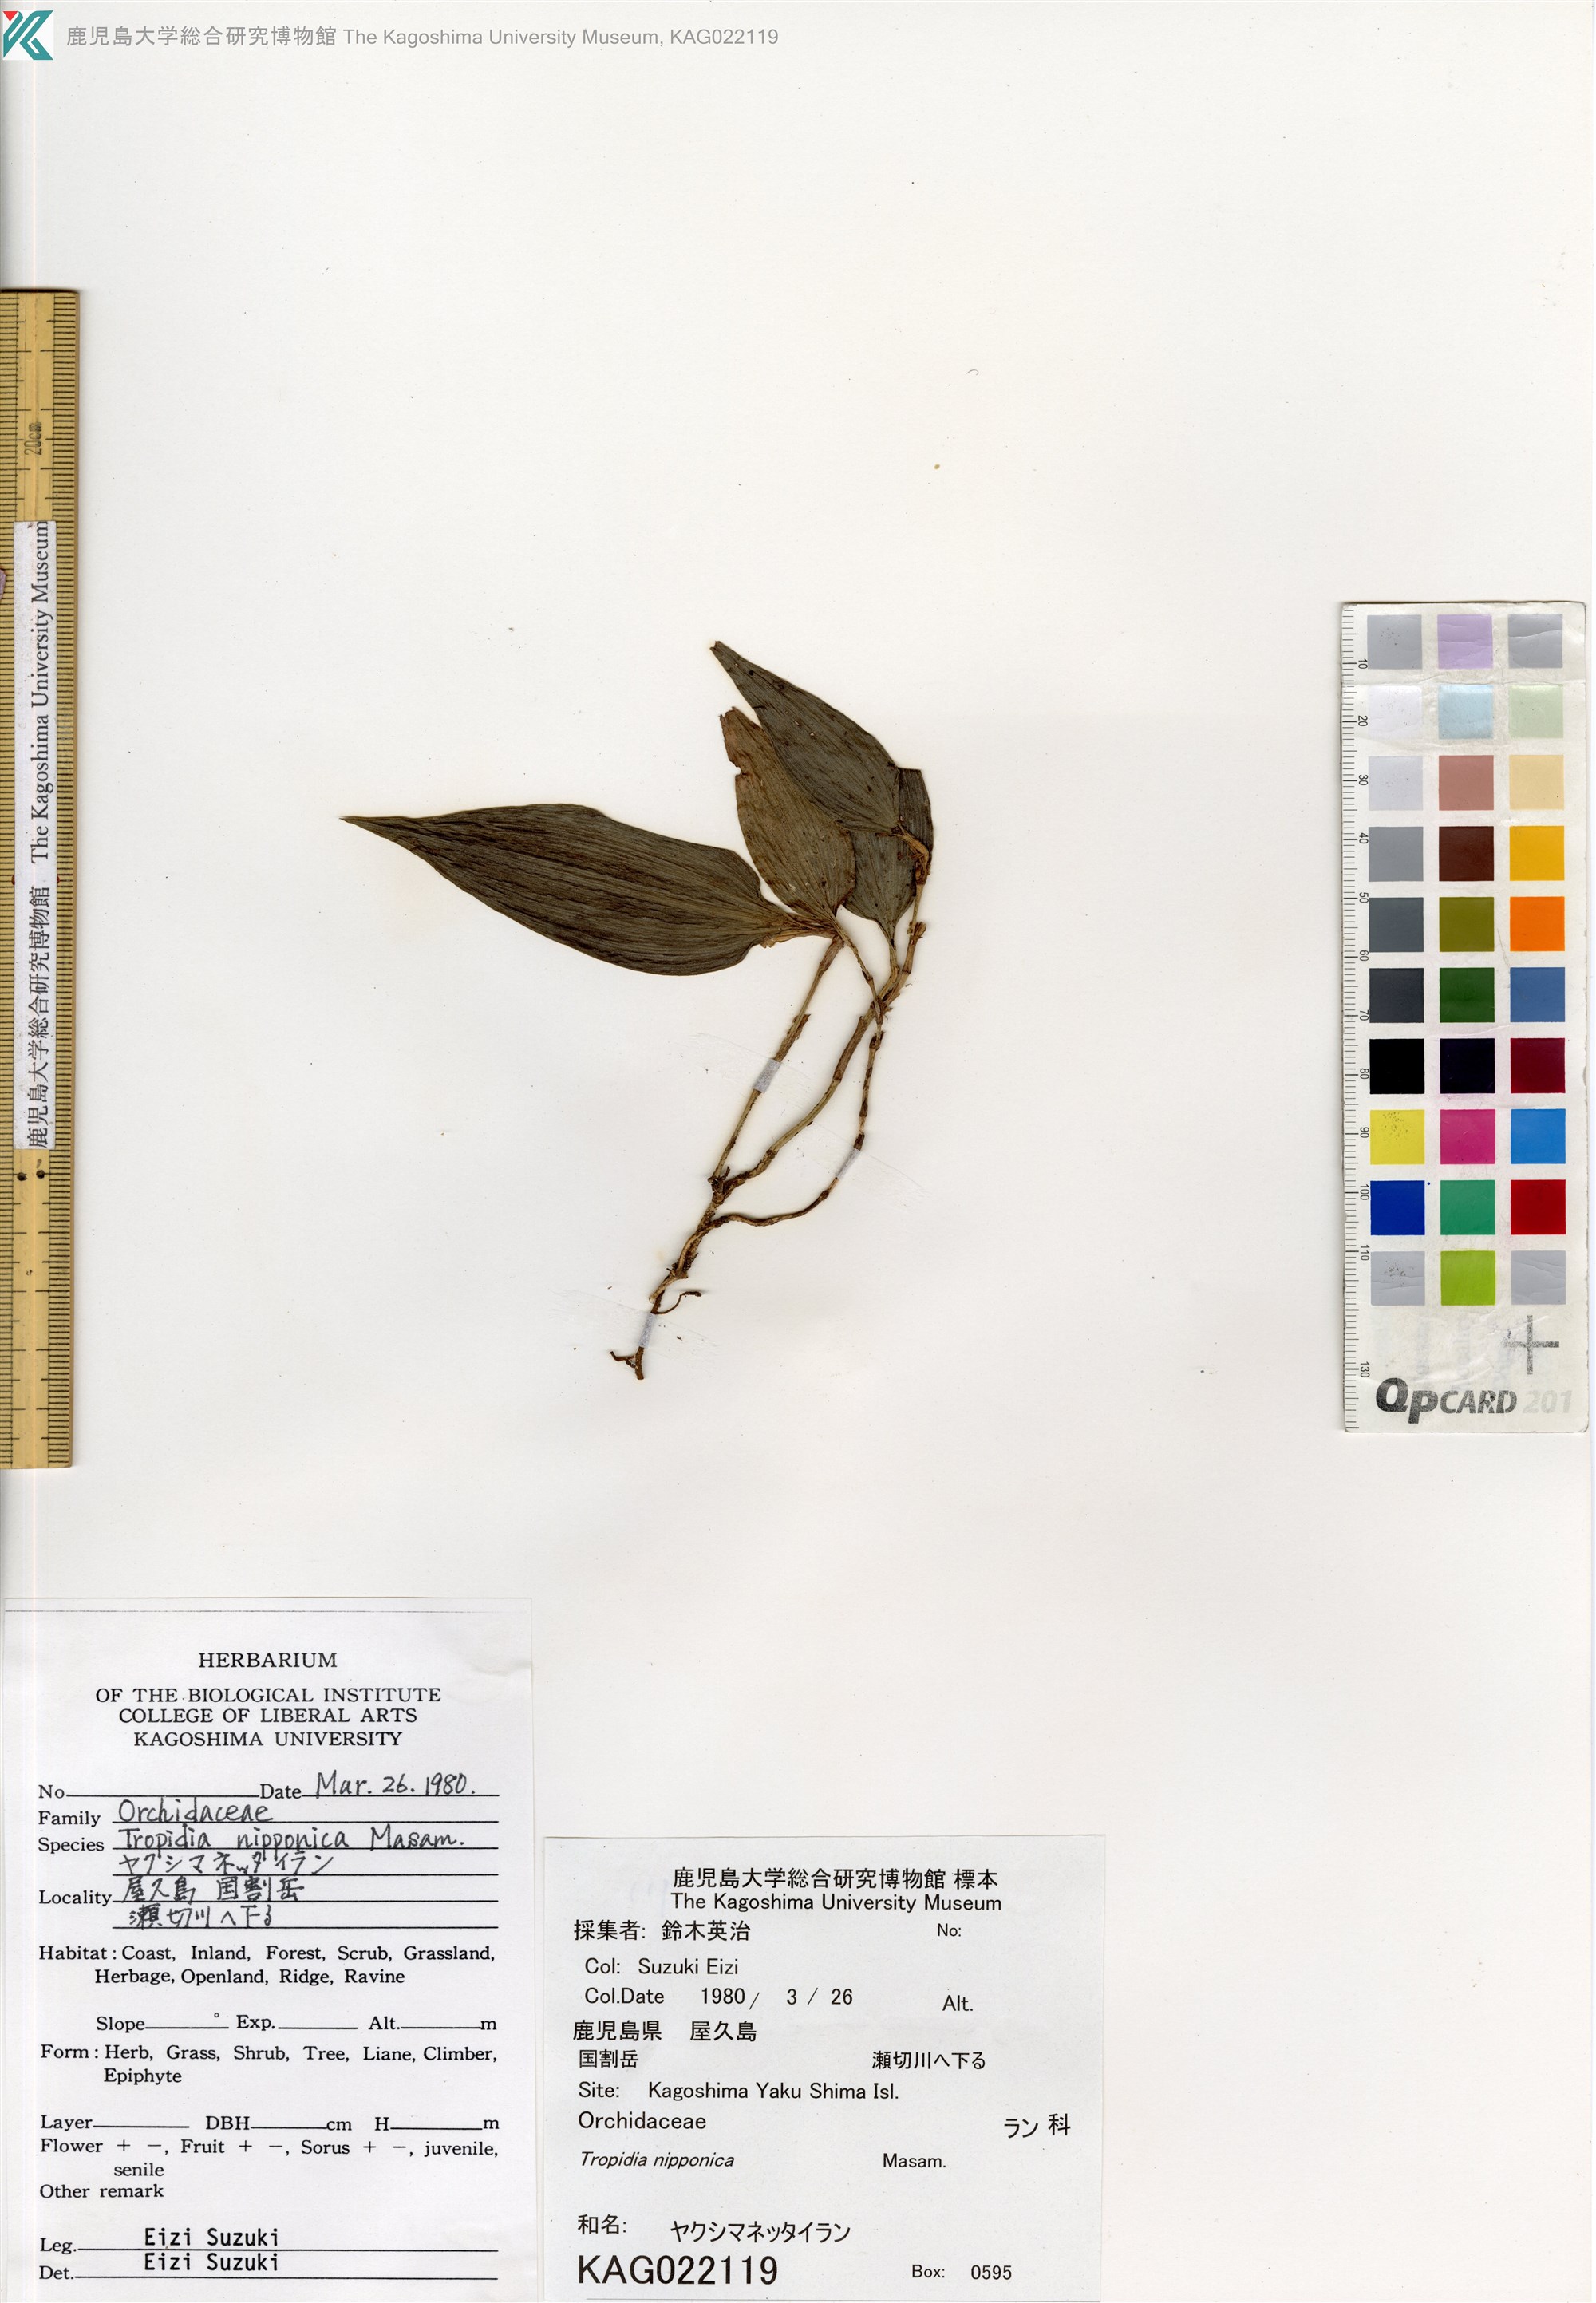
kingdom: Plantae
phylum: Tracheophyta
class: Liliopsida
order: Asparagales
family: Orchidaceae
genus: Tropidia
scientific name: Tropidia nipponica
